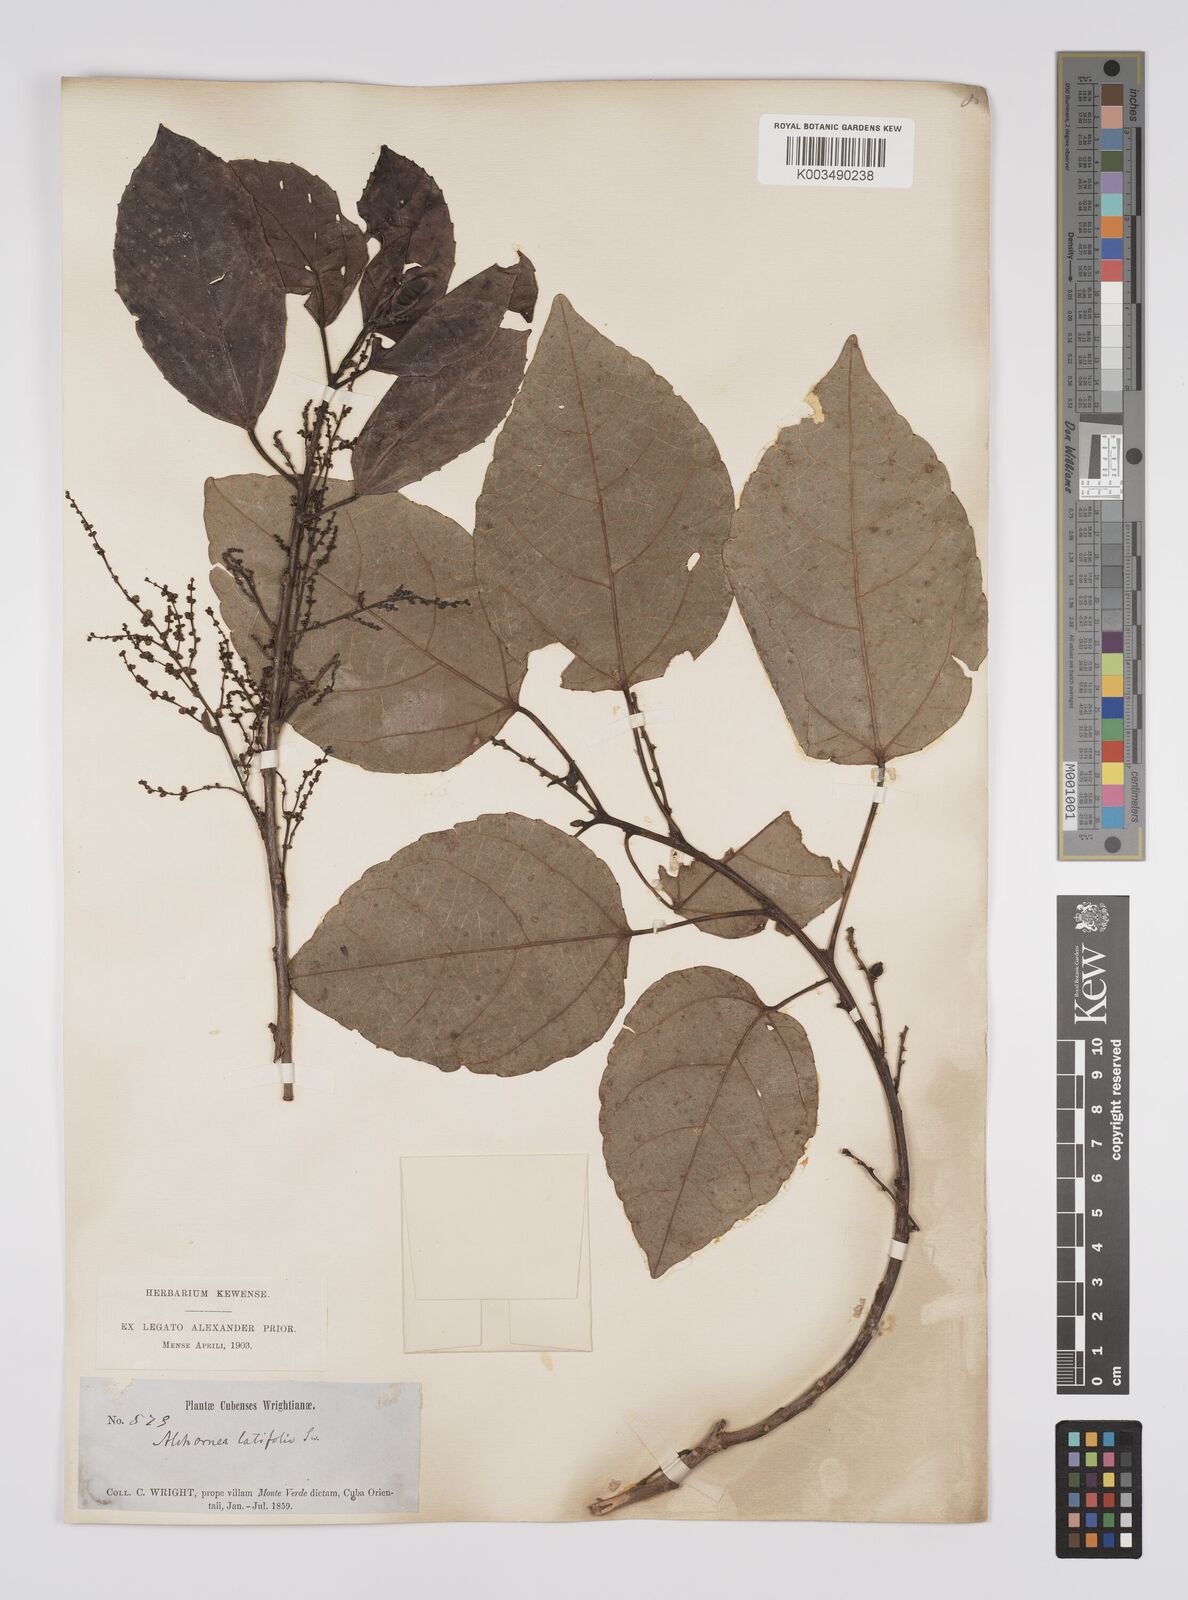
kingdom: Plantae
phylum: Tracheophyta
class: Magnoliopsida
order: Malpighiales
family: Euphorbiaceae
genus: Alchornea
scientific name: Alchornea latifolia
